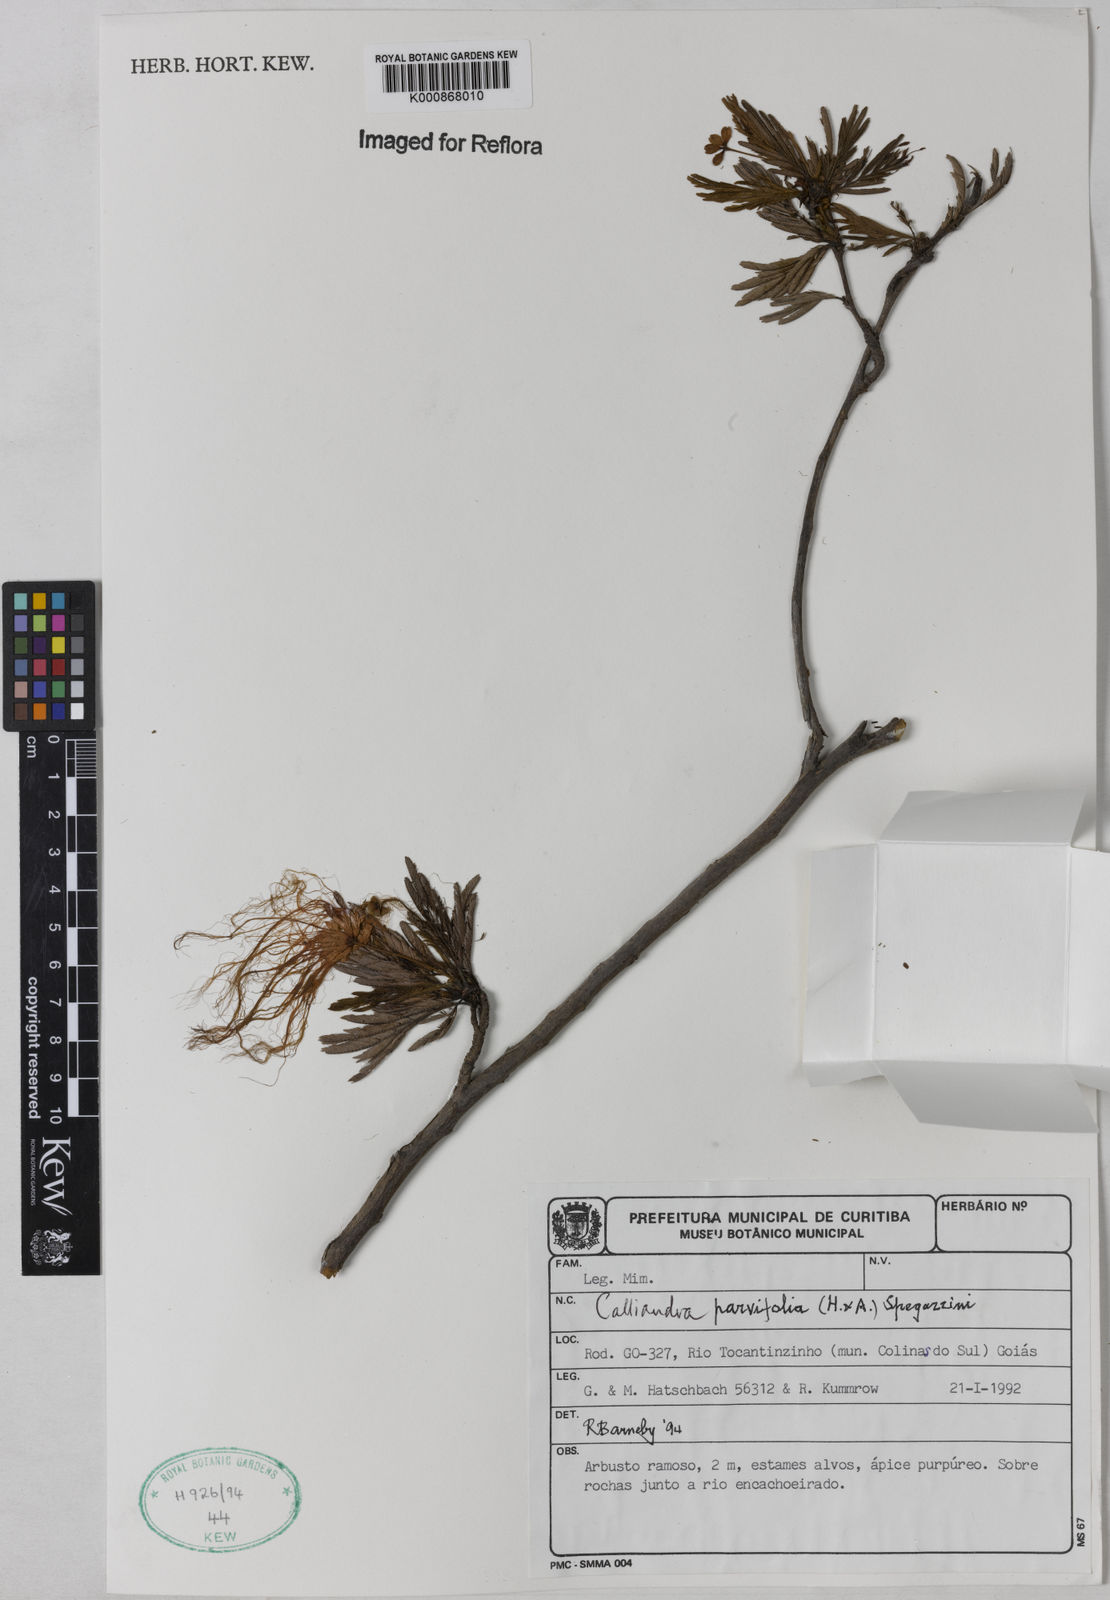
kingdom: Plantae
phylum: Tracheophyta
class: Magnoliopsida
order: Fabales
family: Fabaceae
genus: Calliandra
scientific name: Calliandra parvifolia
